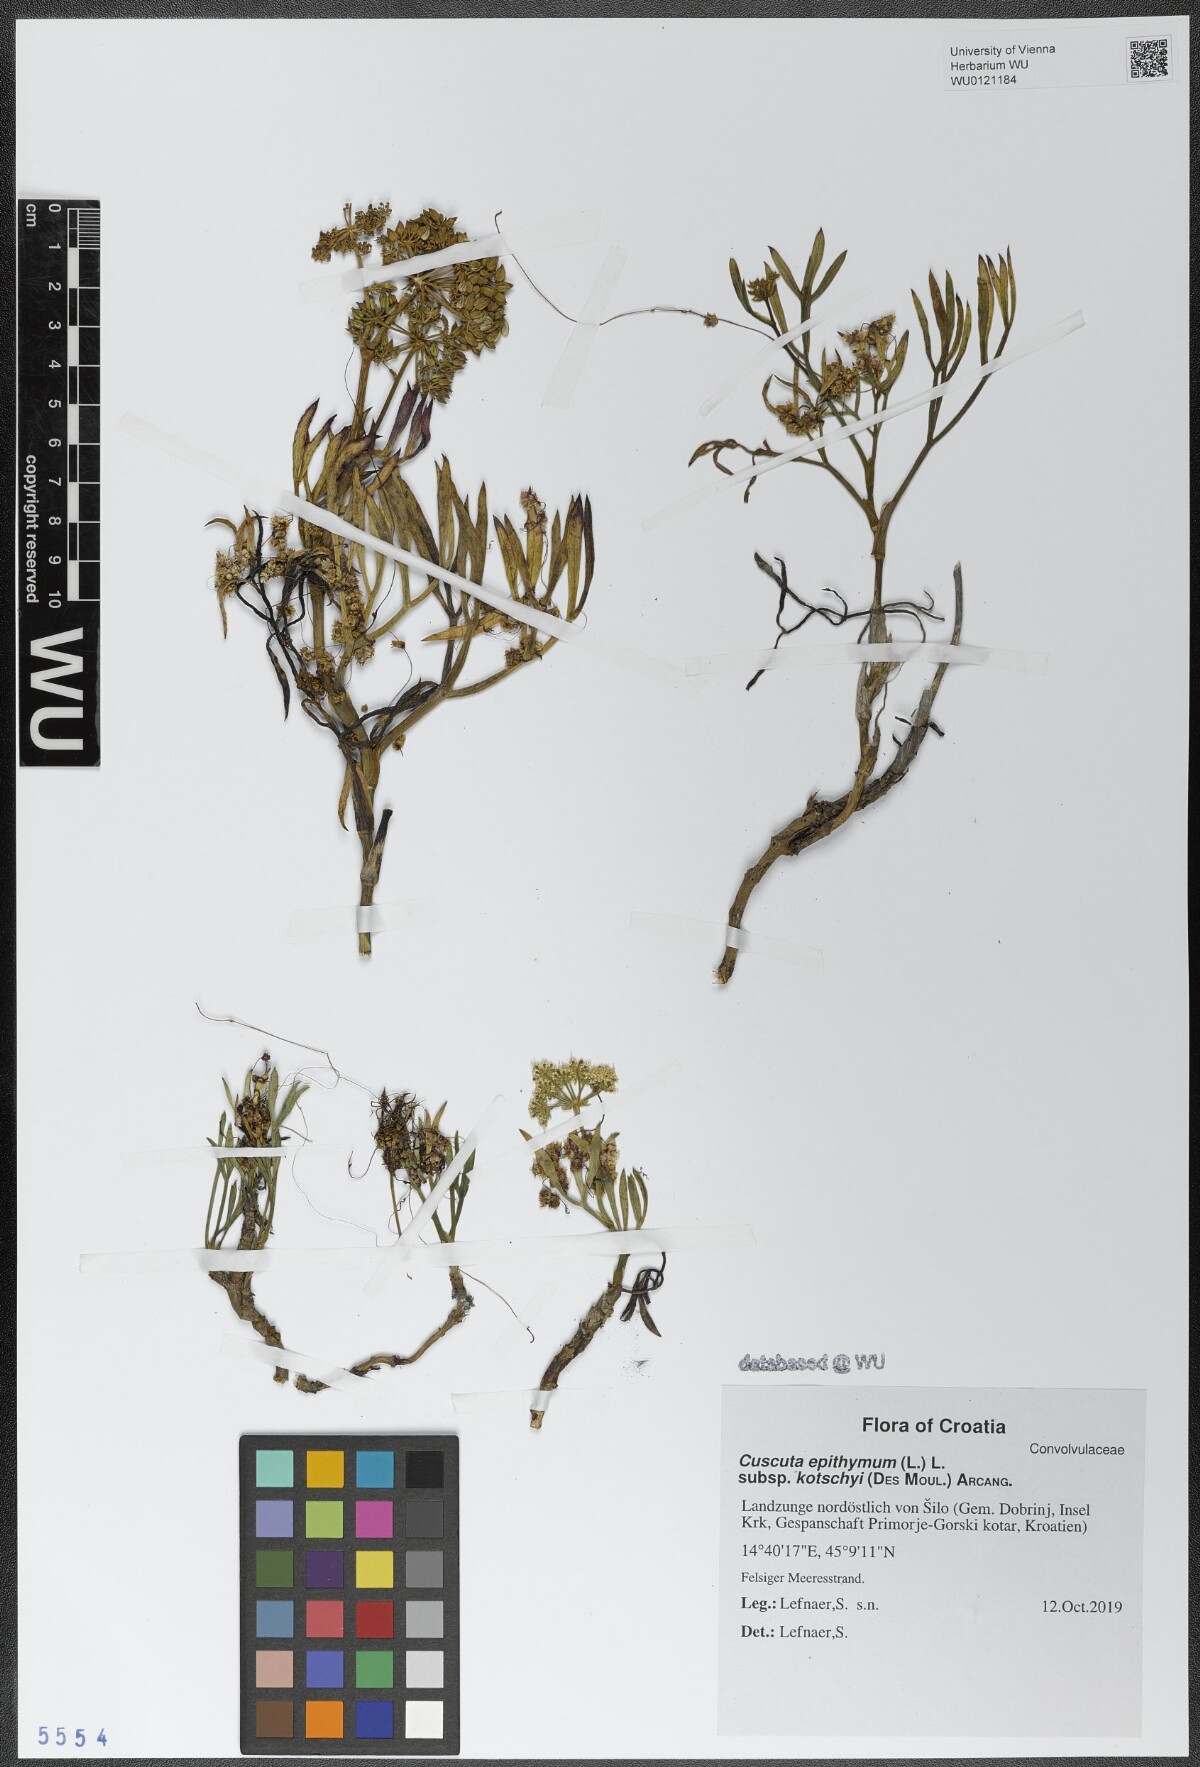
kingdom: Plantae
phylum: Tracheophyta
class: Magnoliopsida
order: Solanales
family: Convolvulaceae
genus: Cuscuta
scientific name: Cuscuta epithymum
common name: Clover dodder
